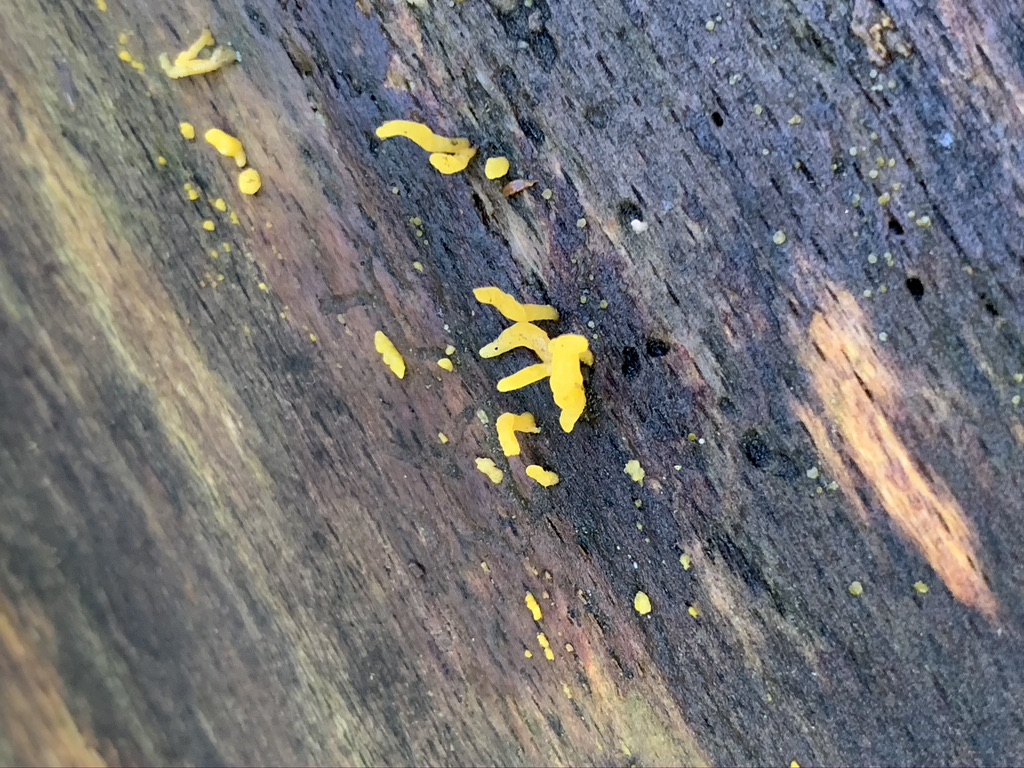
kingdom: Fungi
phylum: Basidiomycota
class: Dacrymycetes
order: Dacrymycetales
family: Dacrymycetaceae
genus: Calocera
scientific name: Calocera cornea
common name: liden guldgaffel
